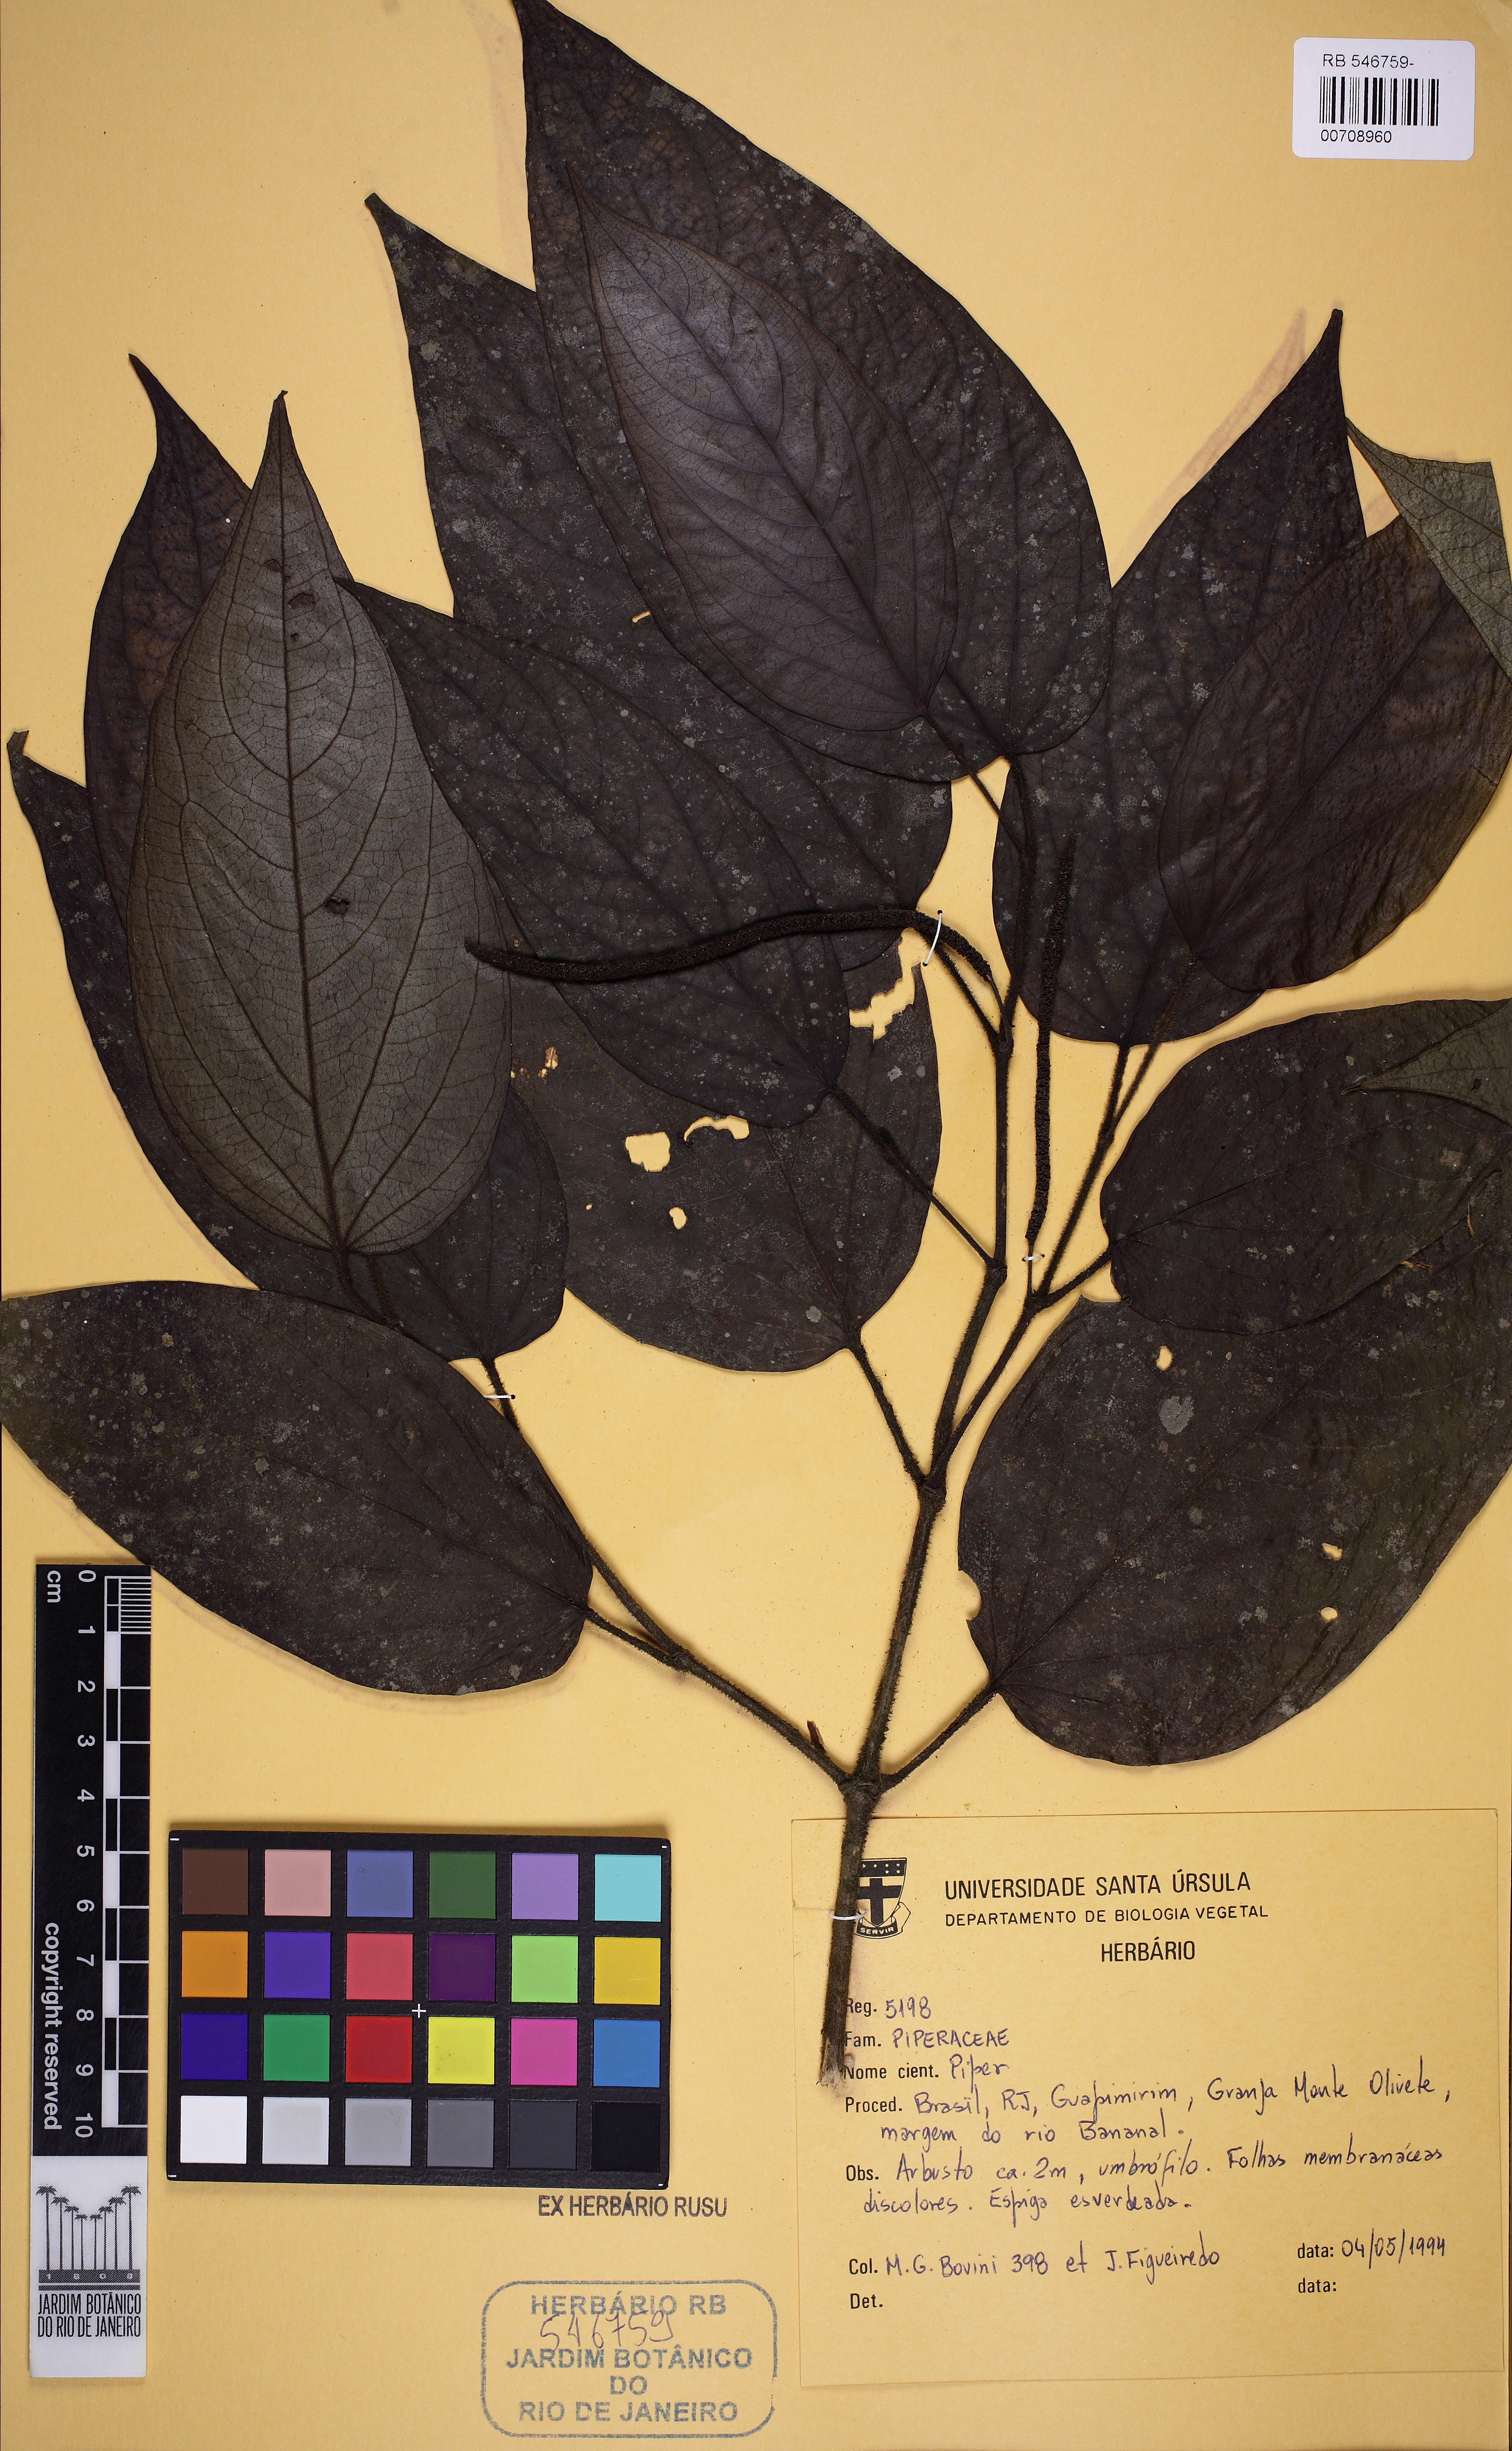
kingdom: Plantae
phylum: Tracheophyta
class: Magnoliopsida
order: Piperales
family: Piperaceae
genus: Piper
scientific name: Piper cubataonum
